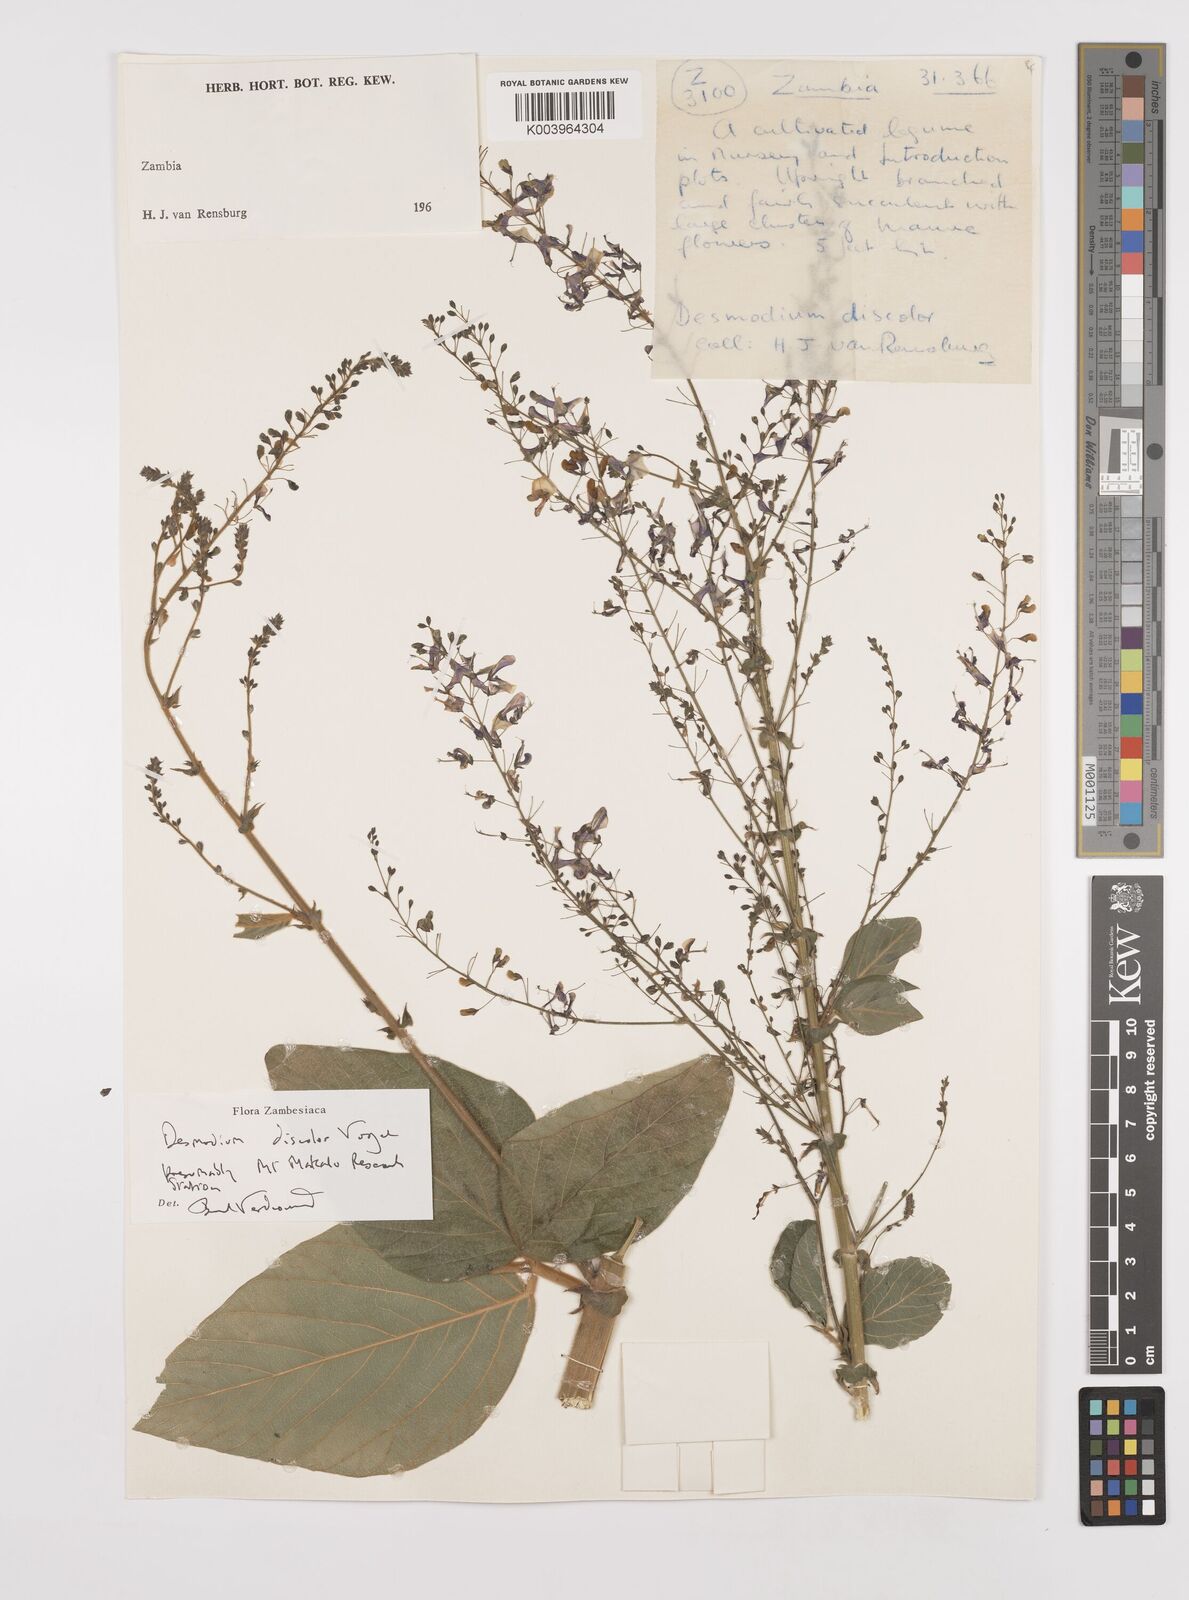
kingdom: Plantae
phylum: Tracheophyta
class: Magnoliopsida
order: Fabales
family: Fabaceae
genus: Desmodium
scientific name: Desmodium subsecundum
